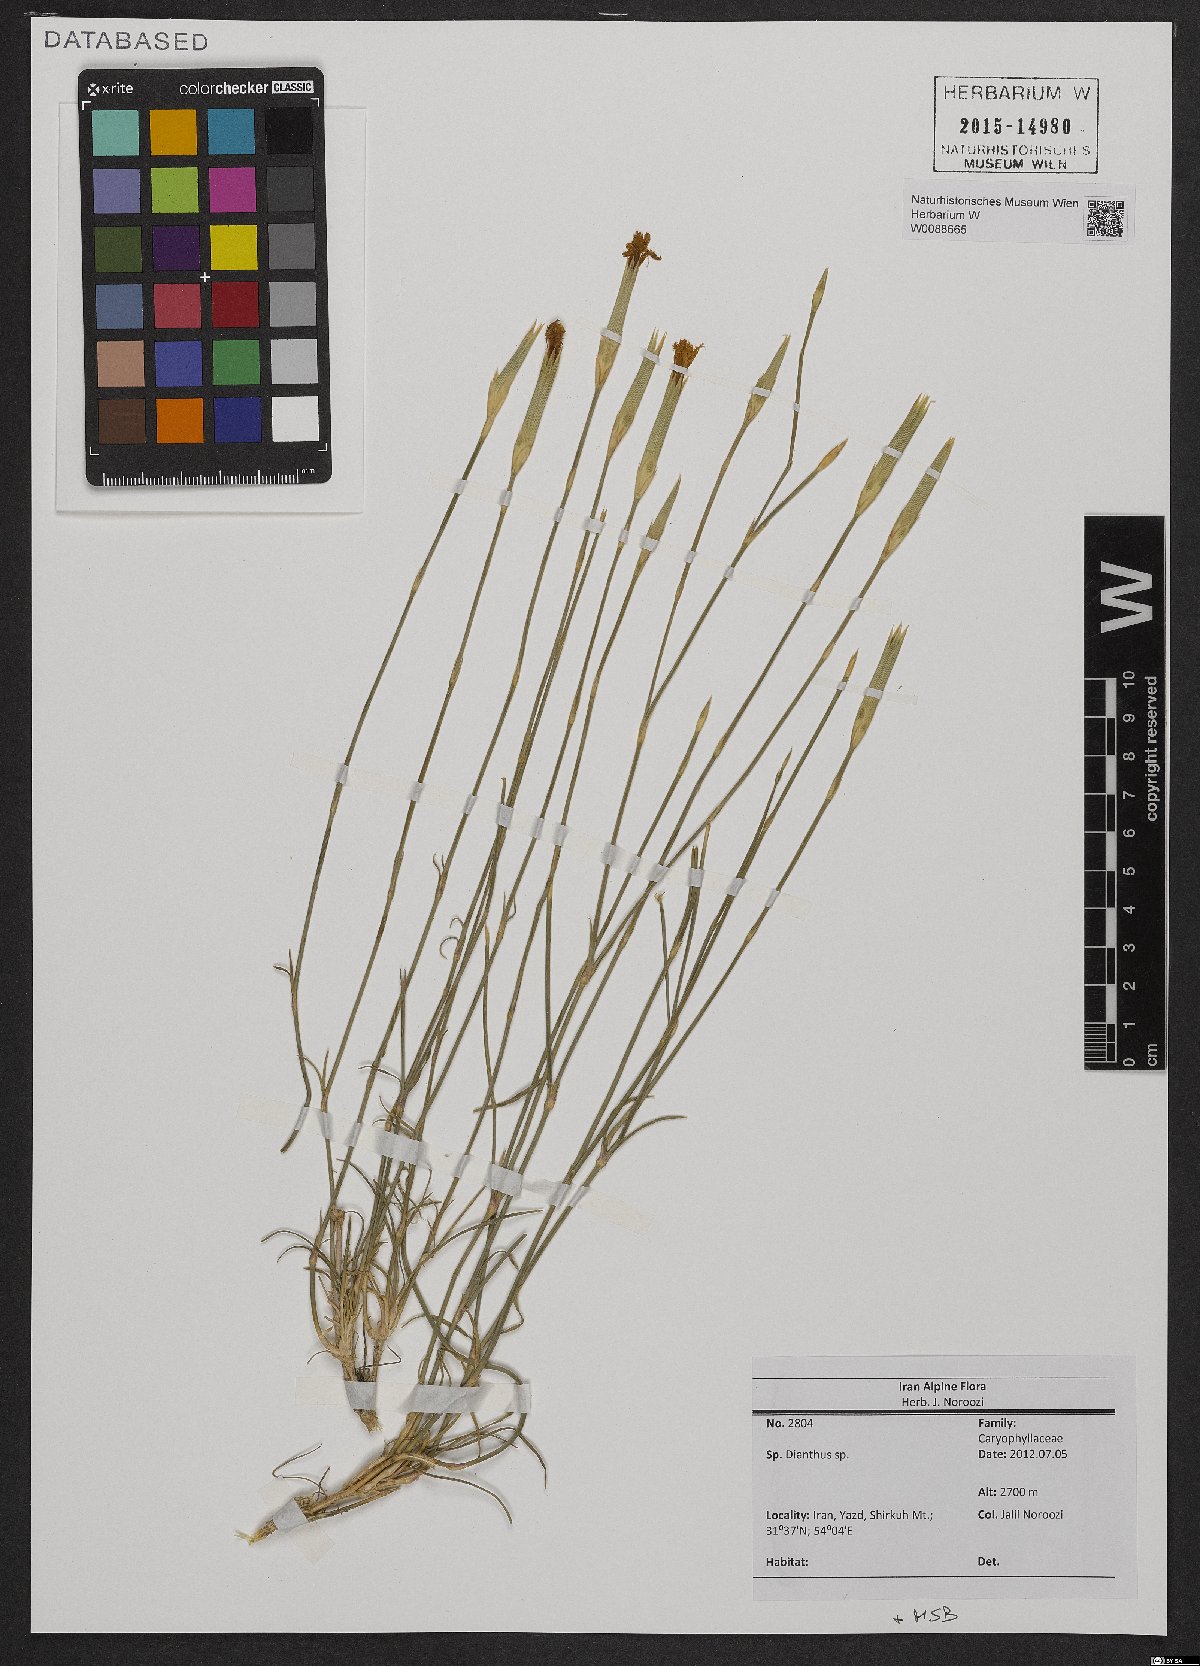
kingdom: Plantae
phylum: Tracheophyta
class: Magnoliopsida
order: Caryophyllales
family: Caryophyllaceae
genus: Dianthus
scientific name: Dianthus
